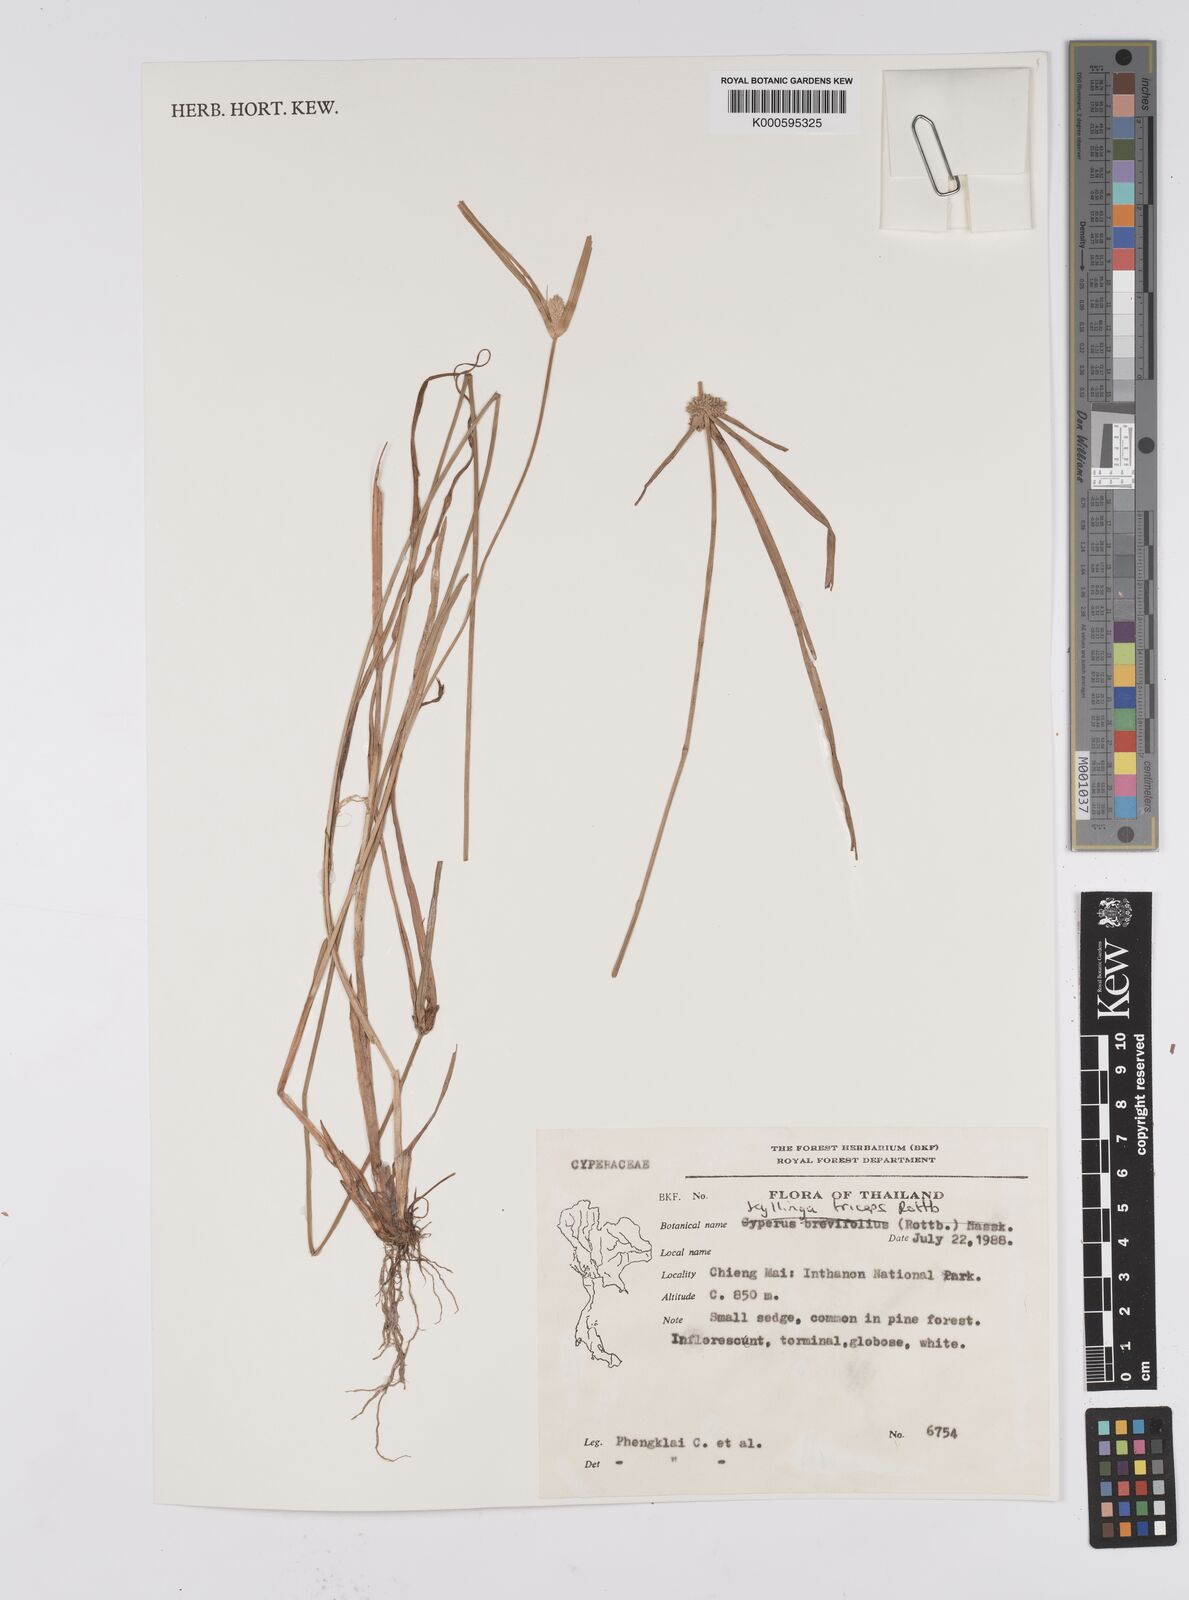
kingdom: Plantae
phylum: Tracheophyta
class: Liliopsida
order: Poales
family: Cyperaceae
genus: Cyperus
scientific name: Cyperus dubius
